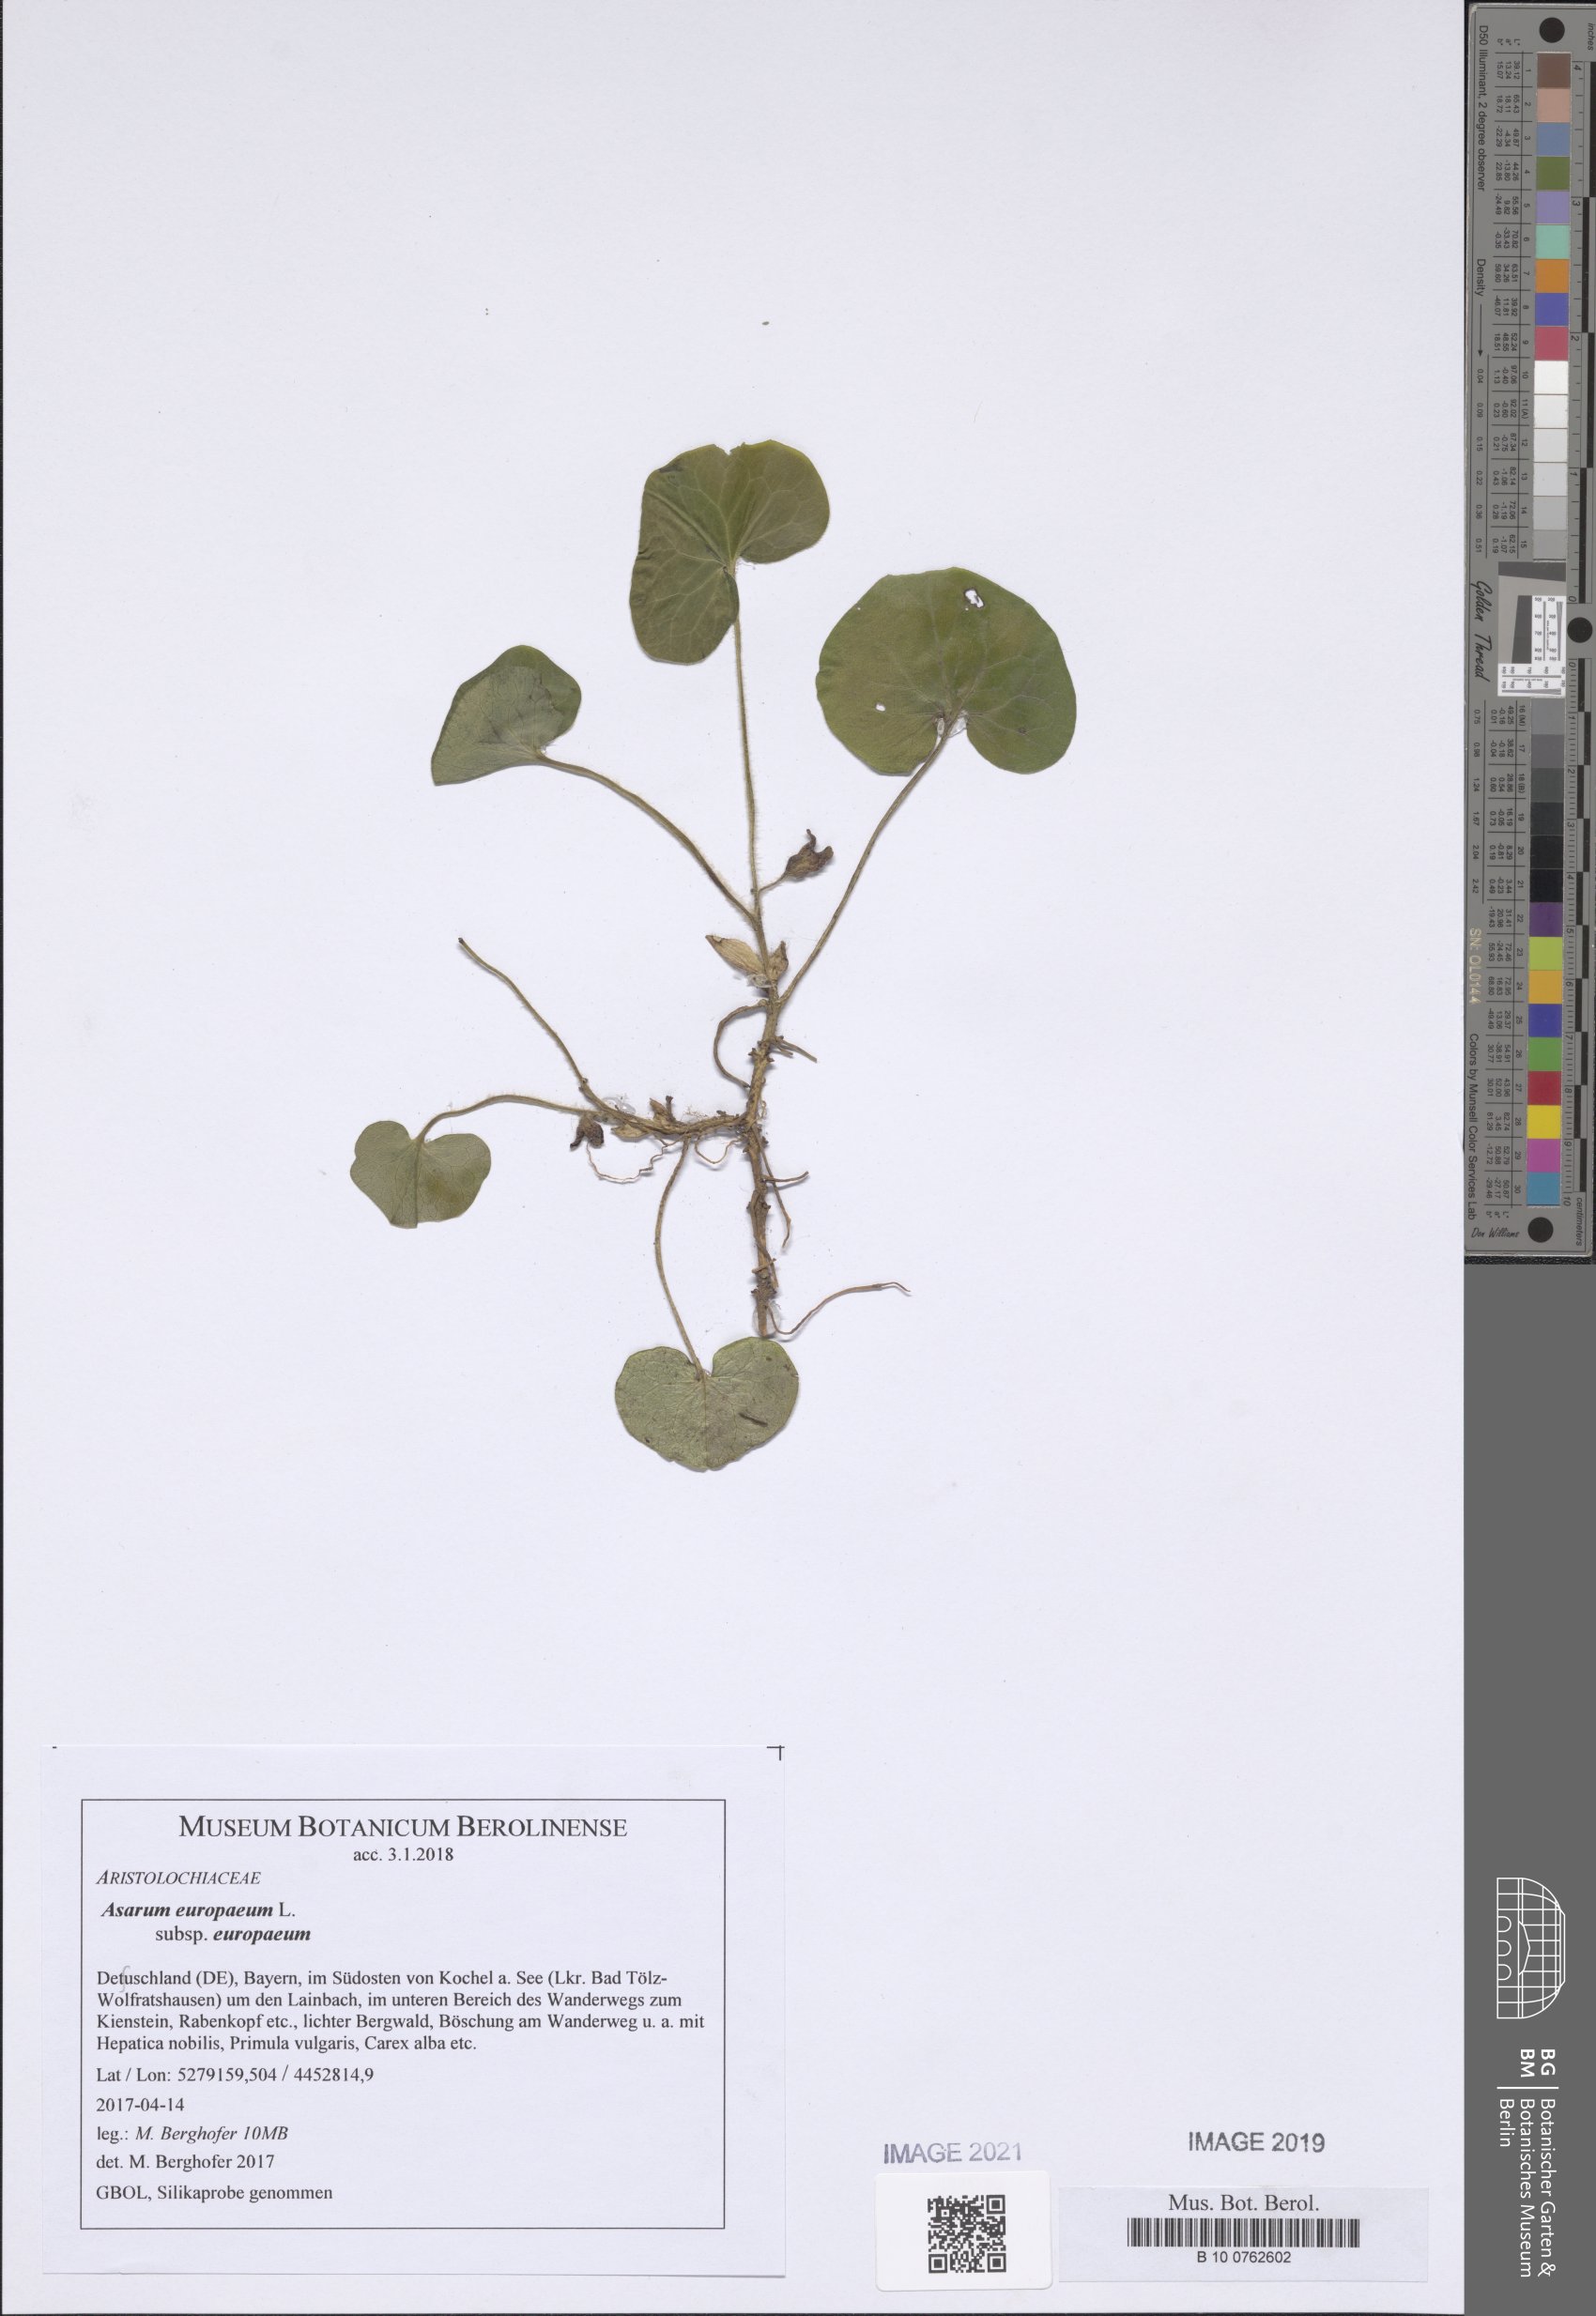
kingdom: Plantae
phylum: Tracheophyta
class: Magnoliopsida
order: Piperales
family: Aristolochiaceae
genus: Asarum
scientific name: Asarum europaeum
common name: Asarabacca
